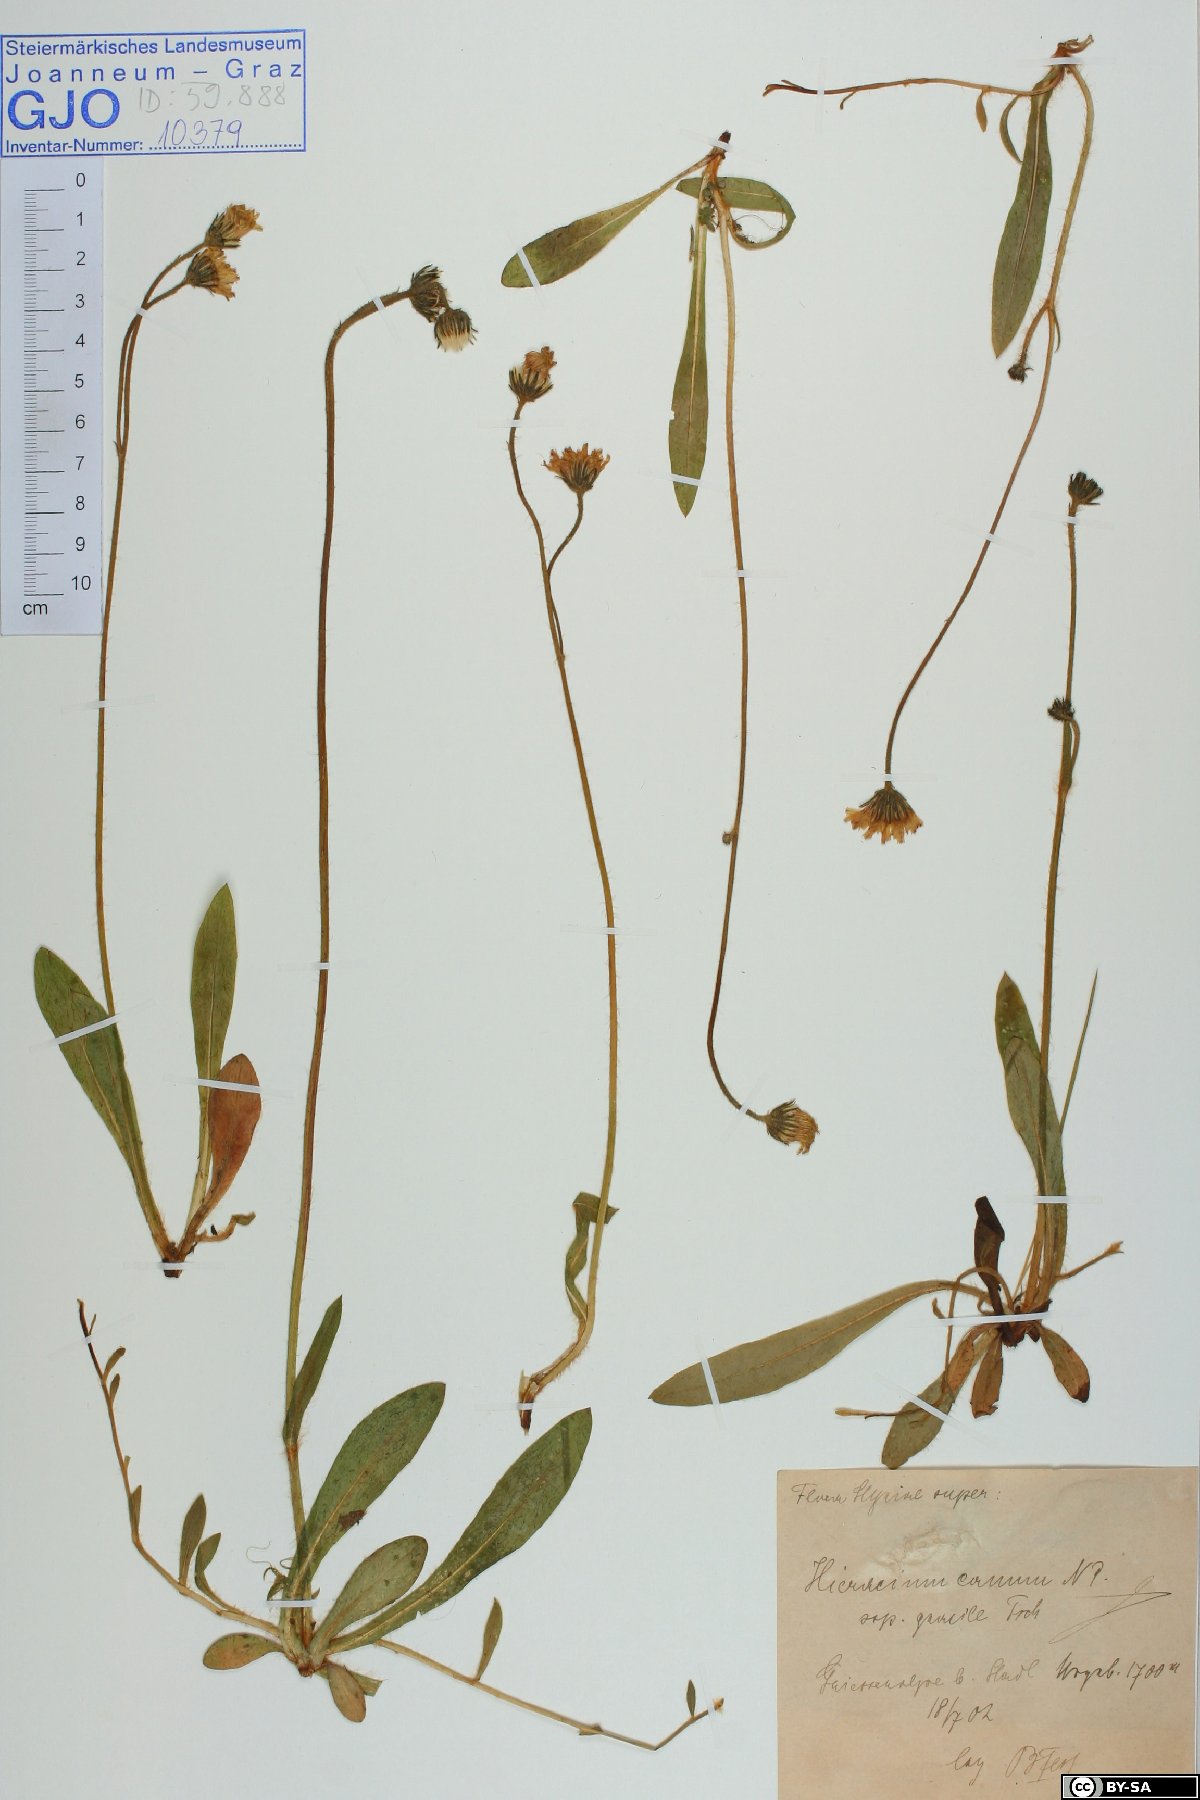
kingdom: Plantae
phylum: Tracheophyta
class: Magnoliopsida
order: Asterales
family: Asteraceae
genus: Pilosella
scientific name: Pilosella cana
